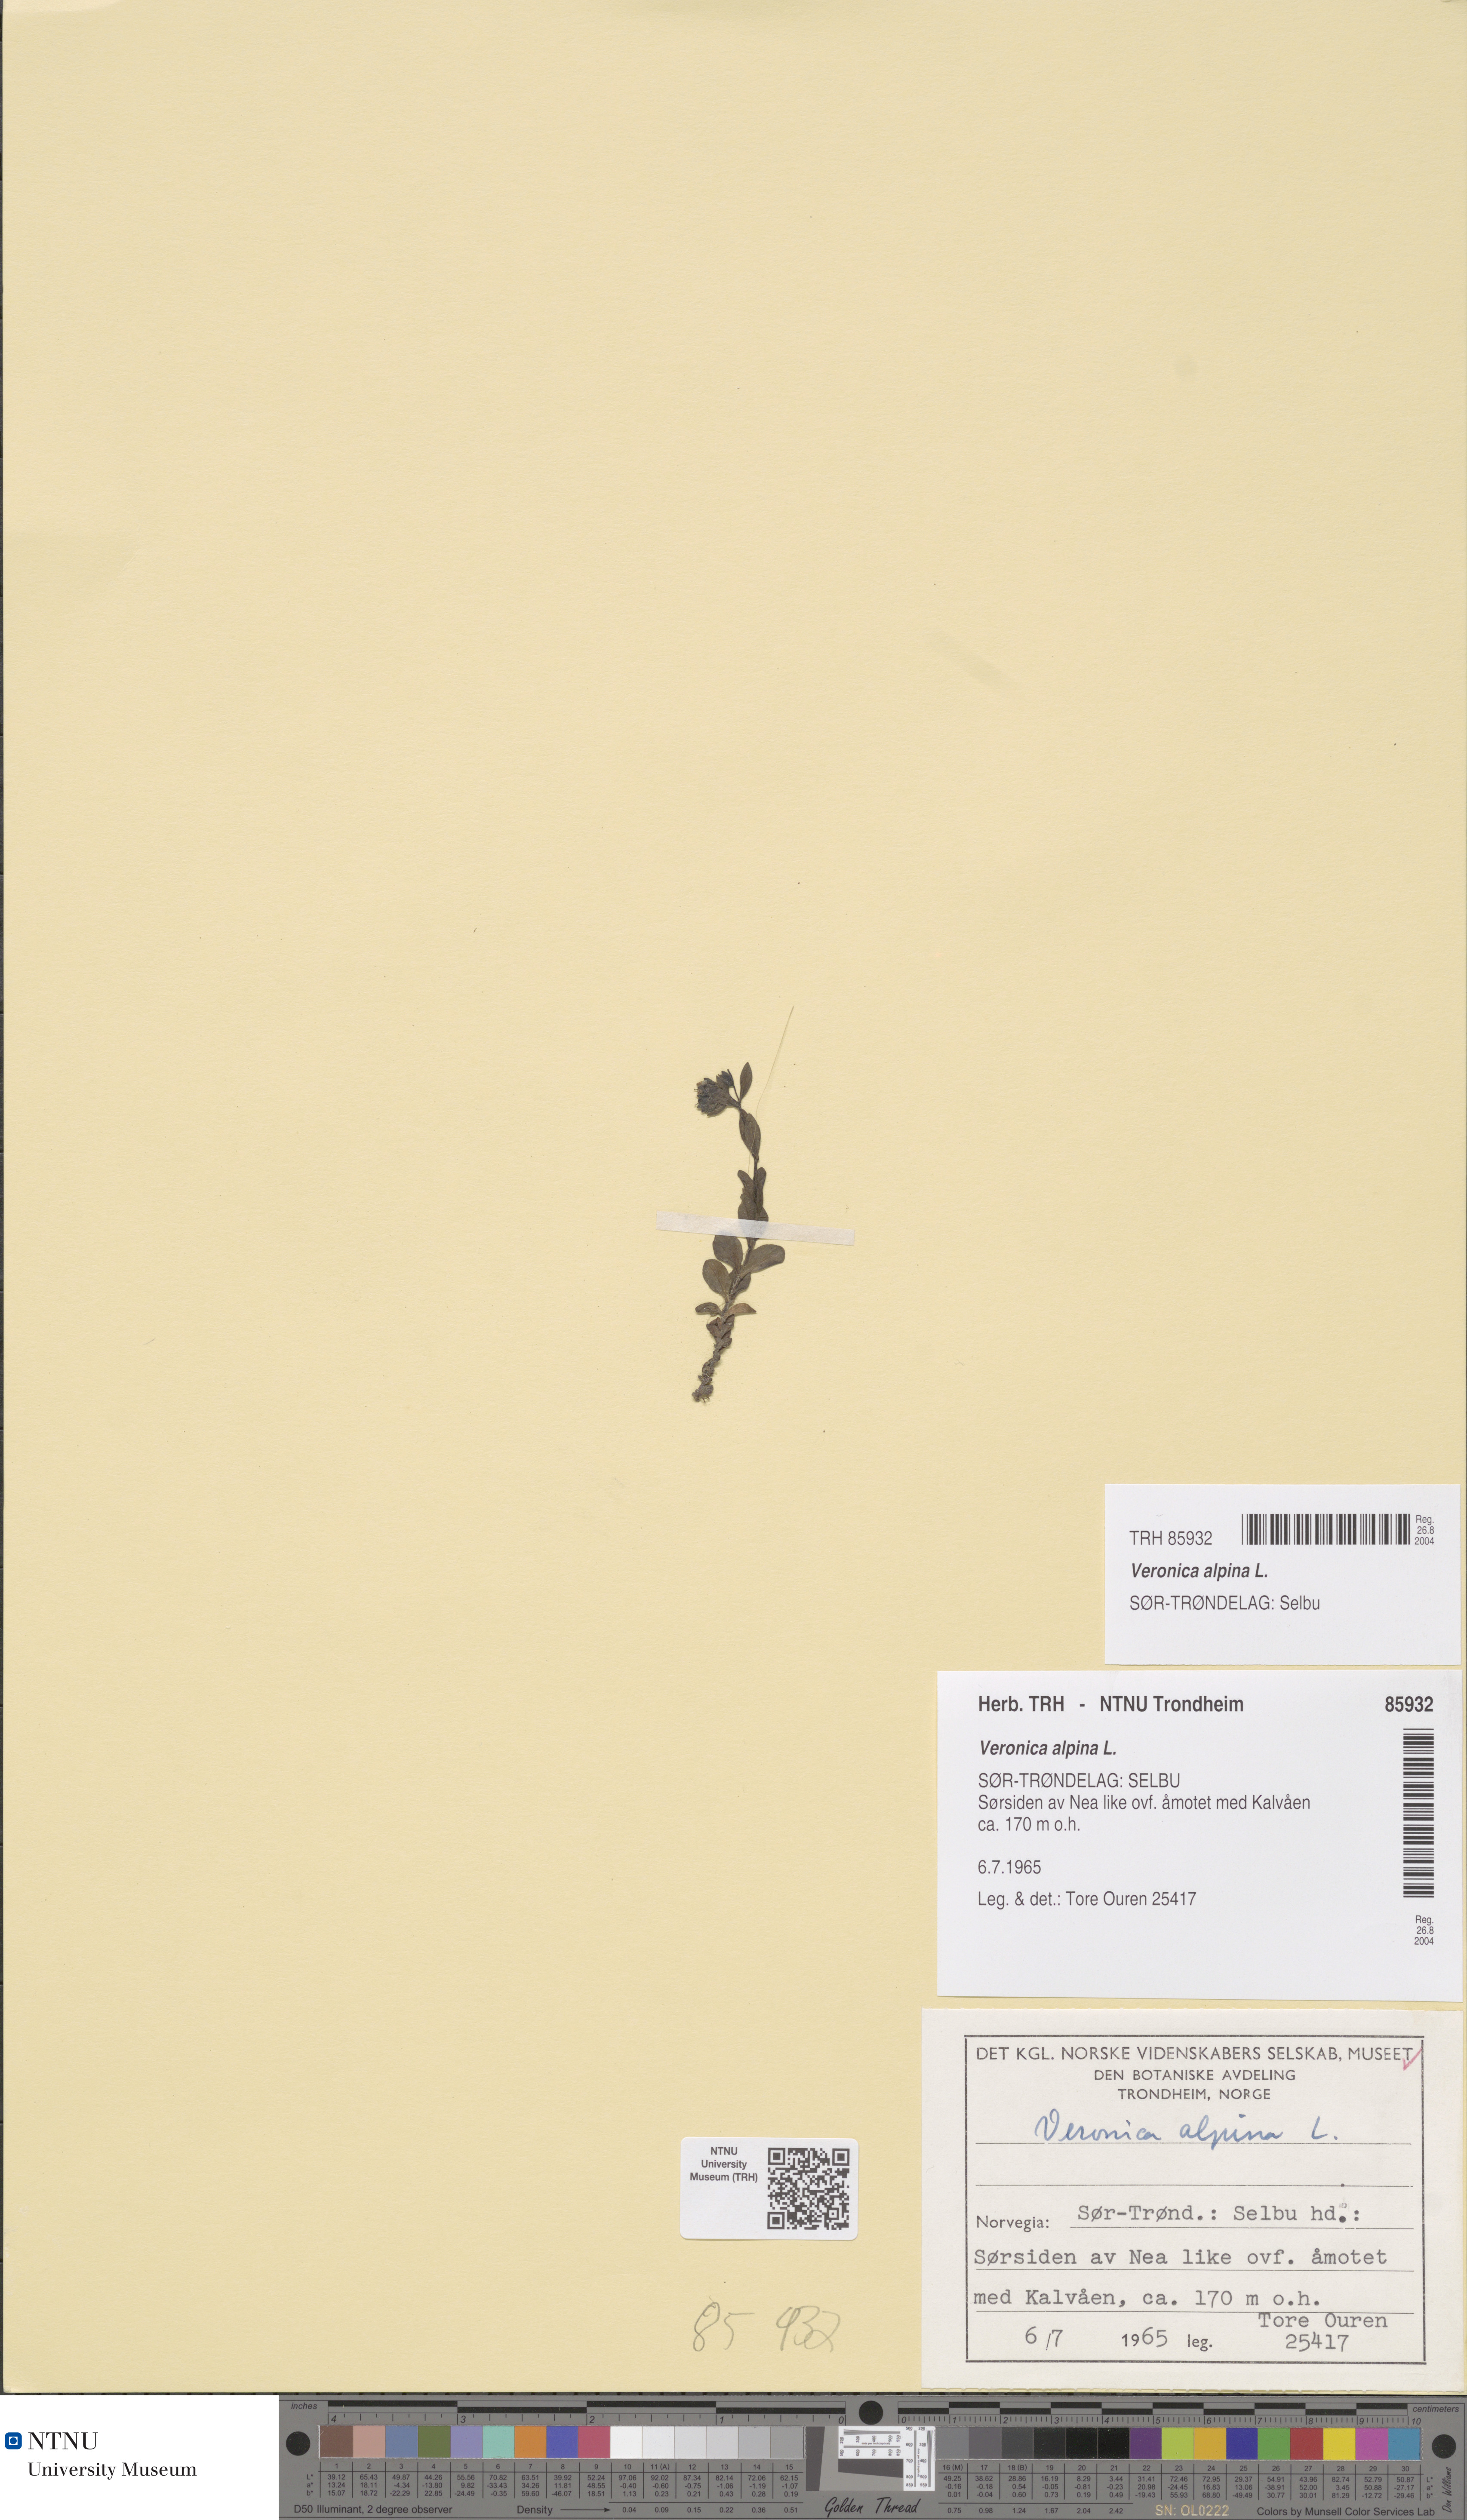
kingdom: Plantae
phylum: Tracheophyta
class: Magnoliopsida
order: Lamiales
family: Plantaginaceae
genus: Veronica
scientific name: Veronica alpina
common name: Alpine speedwell
